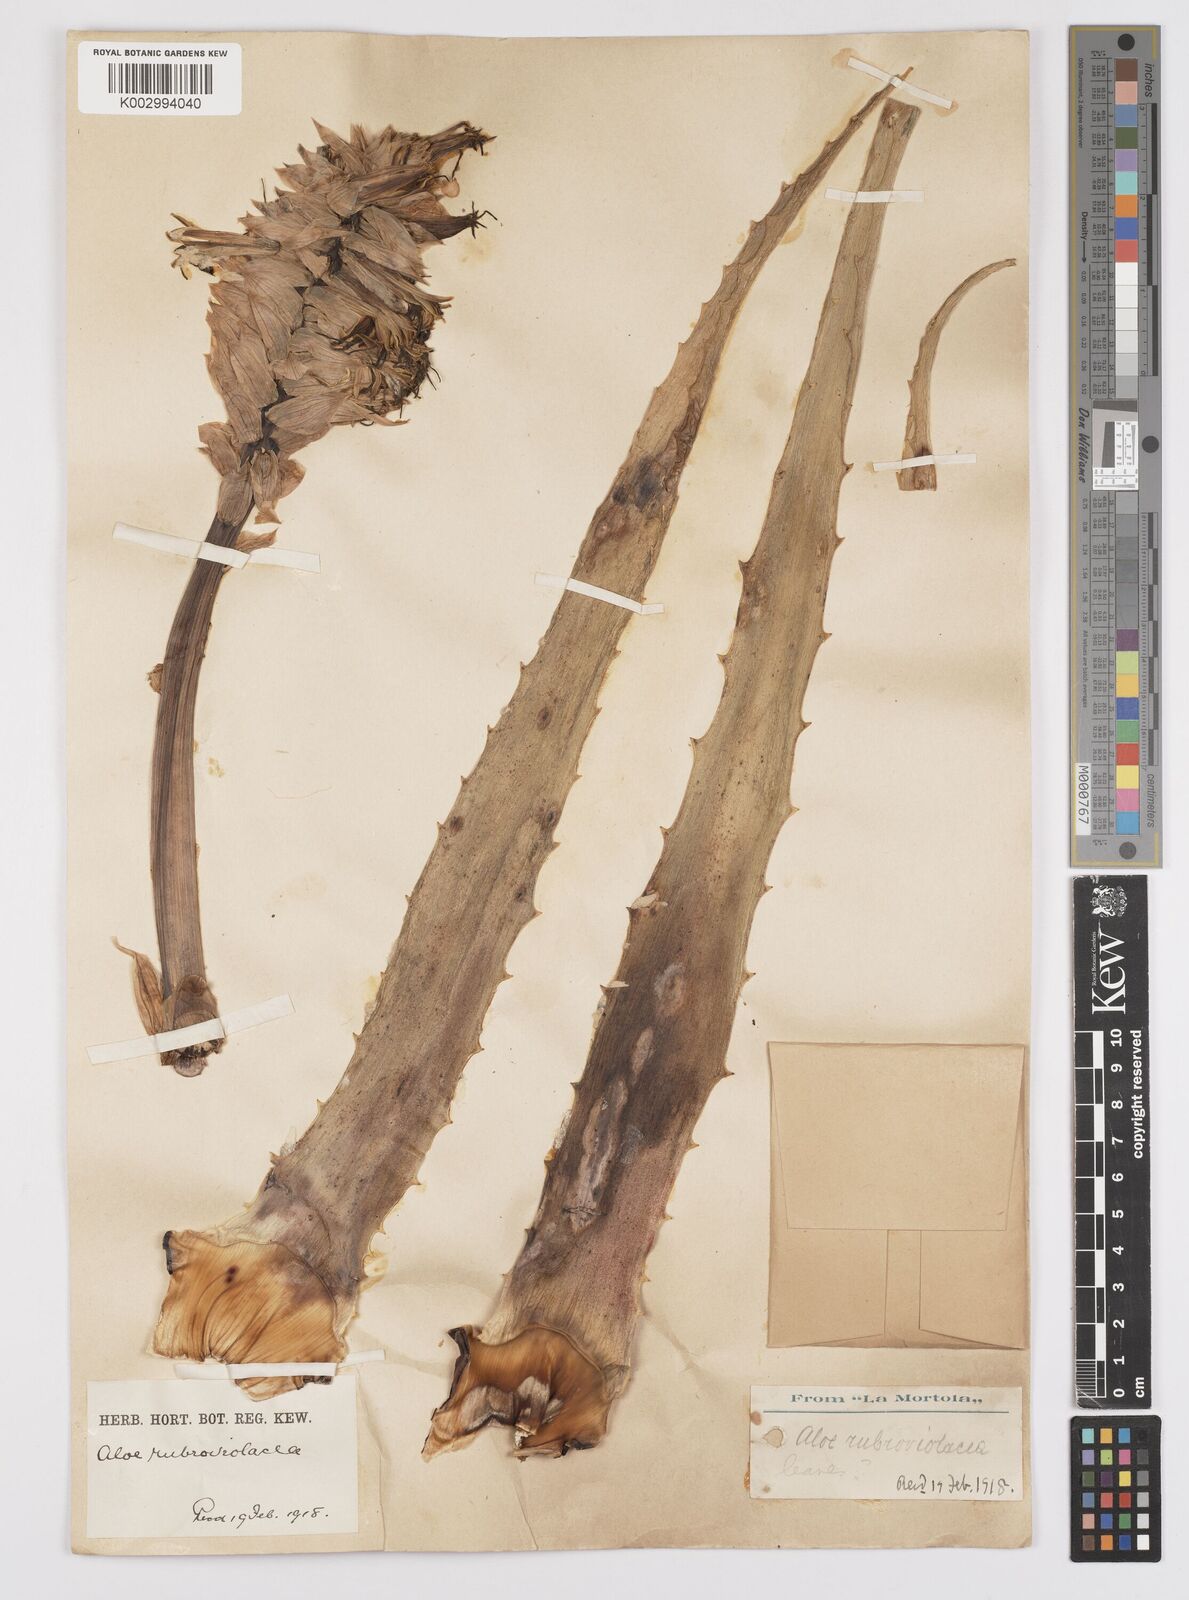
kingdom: Plantae
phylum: Tracheophyta
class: Liliopsida
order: Asparagales
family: Asphodelaceae
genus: Aloe
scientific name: Aloe rubroviolacea
